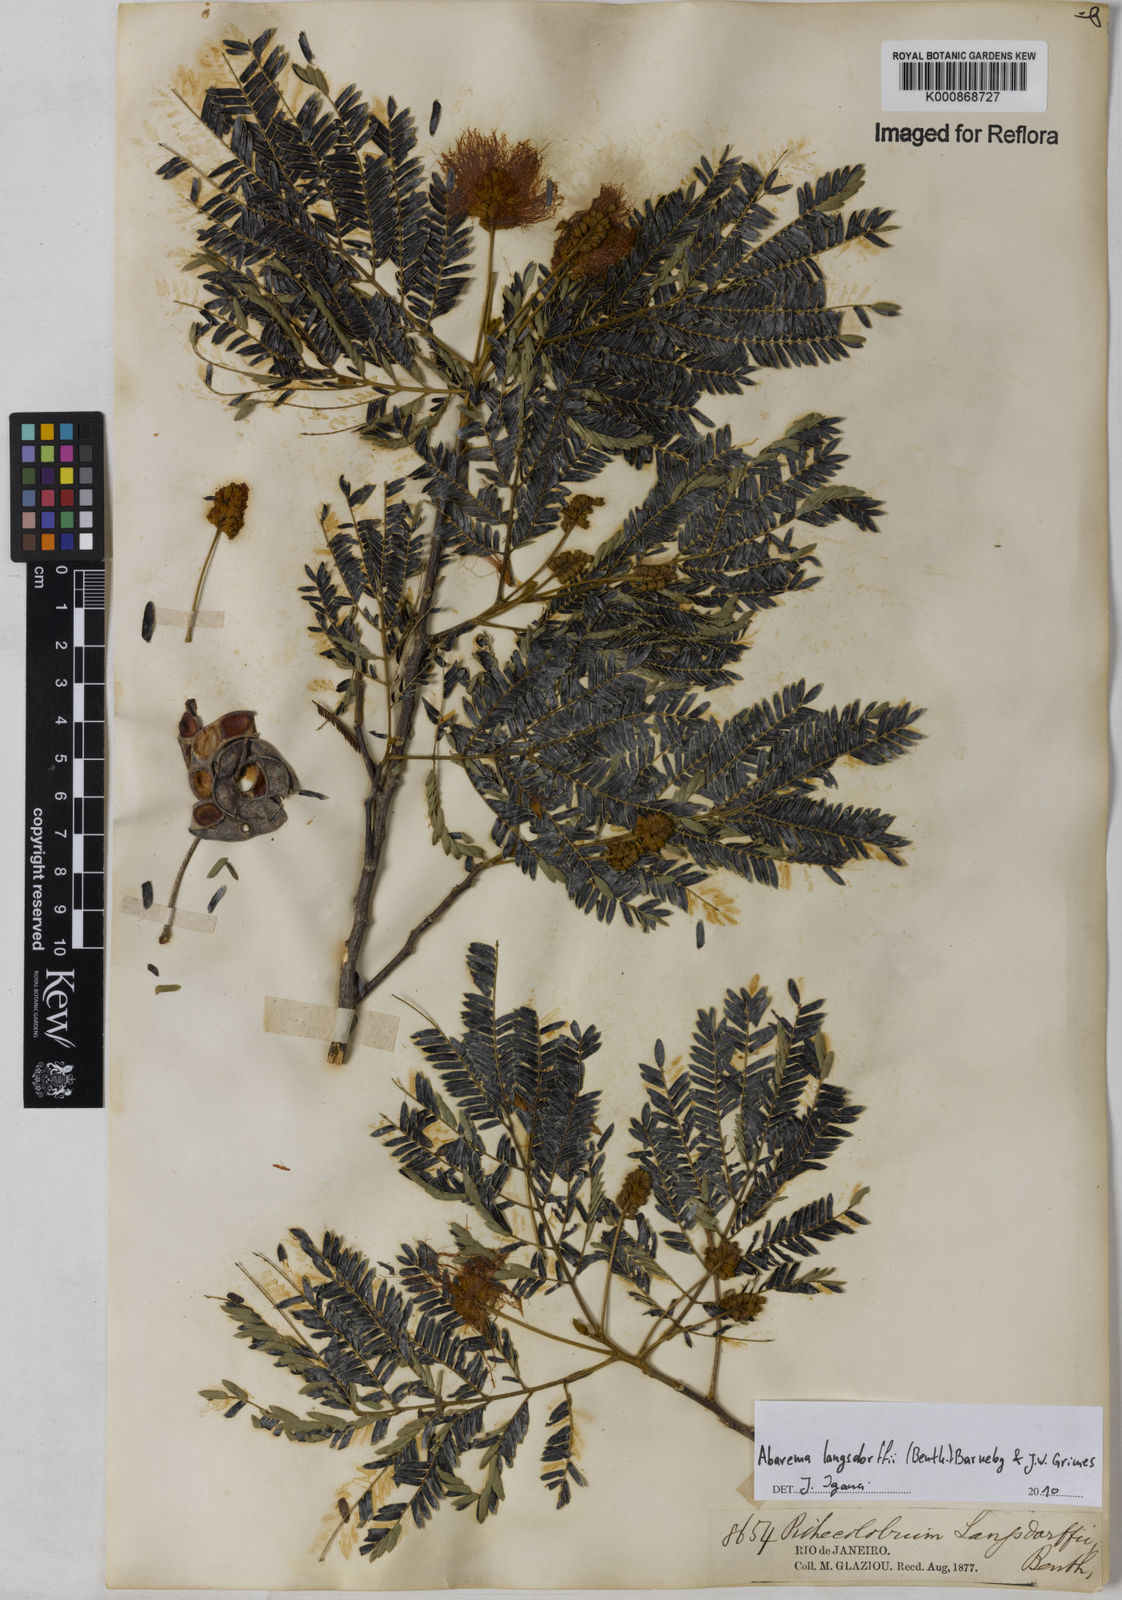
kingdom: Plantae
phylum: Tracheophyta
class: Magnoliopsida
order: Fabales
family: Fabaceae
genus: Jupunba
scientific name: Jupunba langsdorffii
